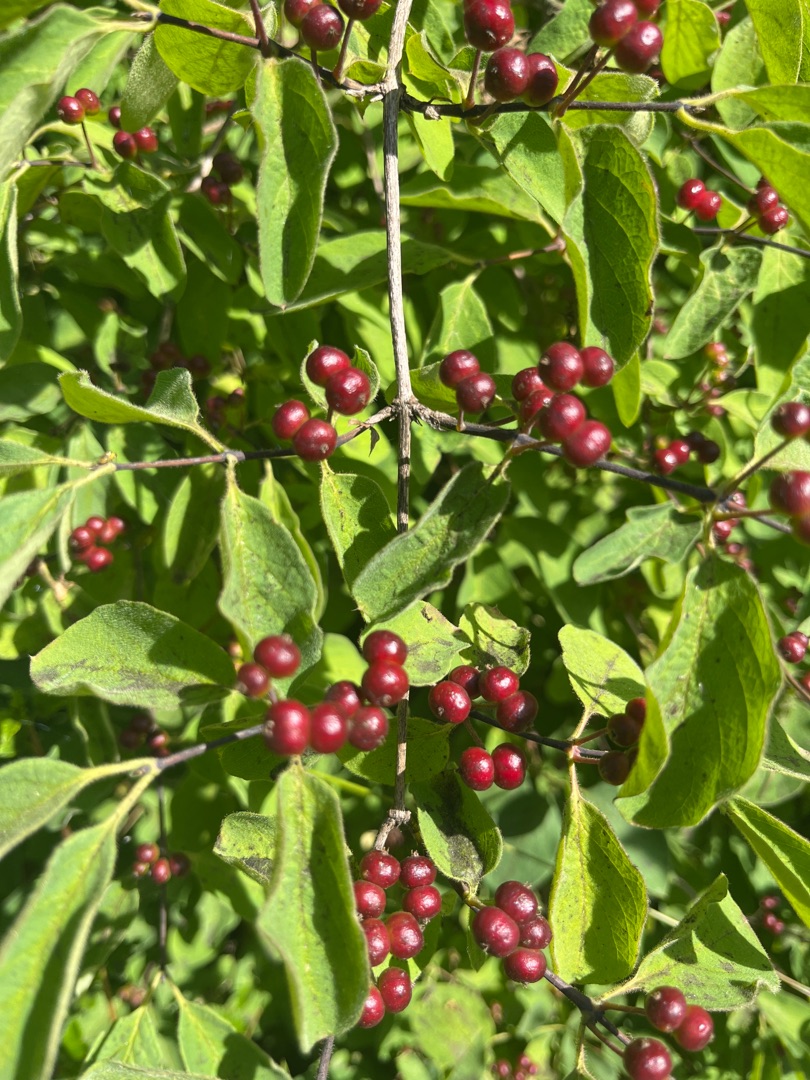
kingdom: Plantae
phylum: Tracheophyta
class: Magnoliopsida
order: Dipsacales
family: Caprifoliaceae
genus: Lonicera
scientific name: Lonicera xylosteum
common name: Dunet gedeblad
